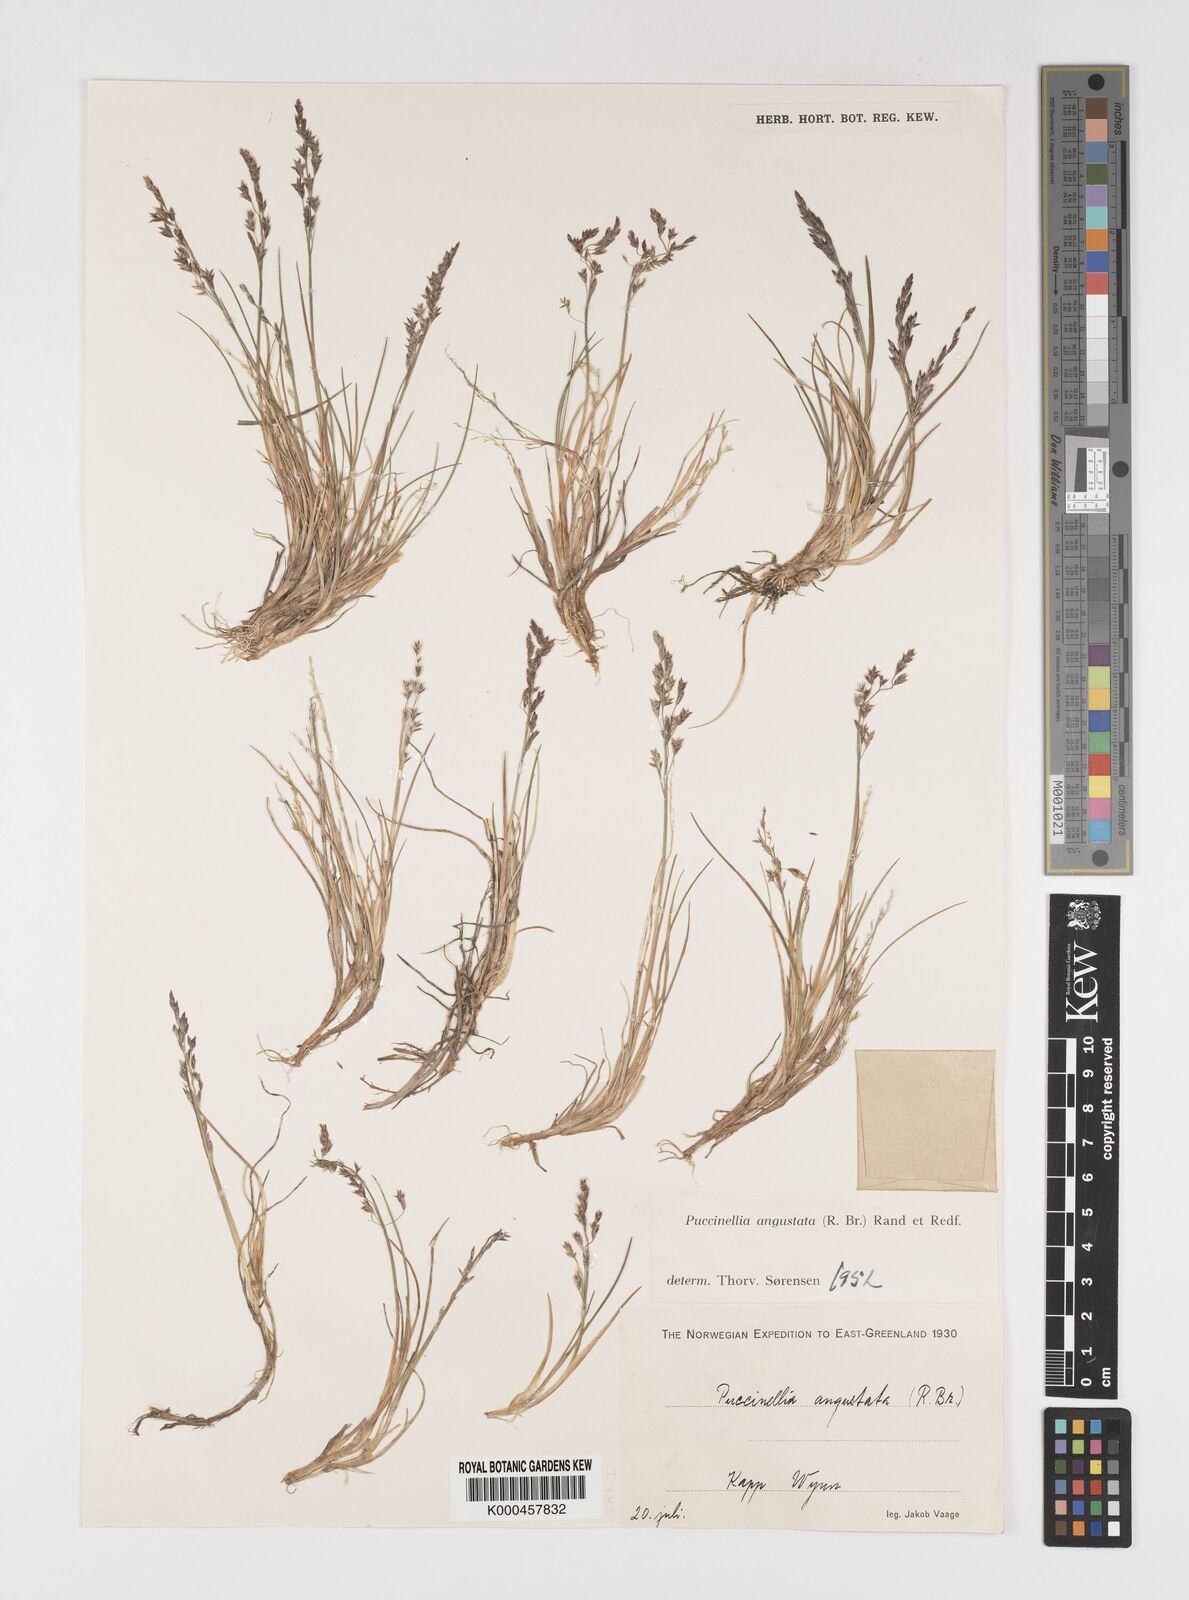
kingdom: Plantae
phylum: Tracheophyta
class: Liliopsida
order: Poales
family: Poaceae
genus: Puccinellia
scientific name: Puccinellia angustata
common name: Narrow alkaligrass
